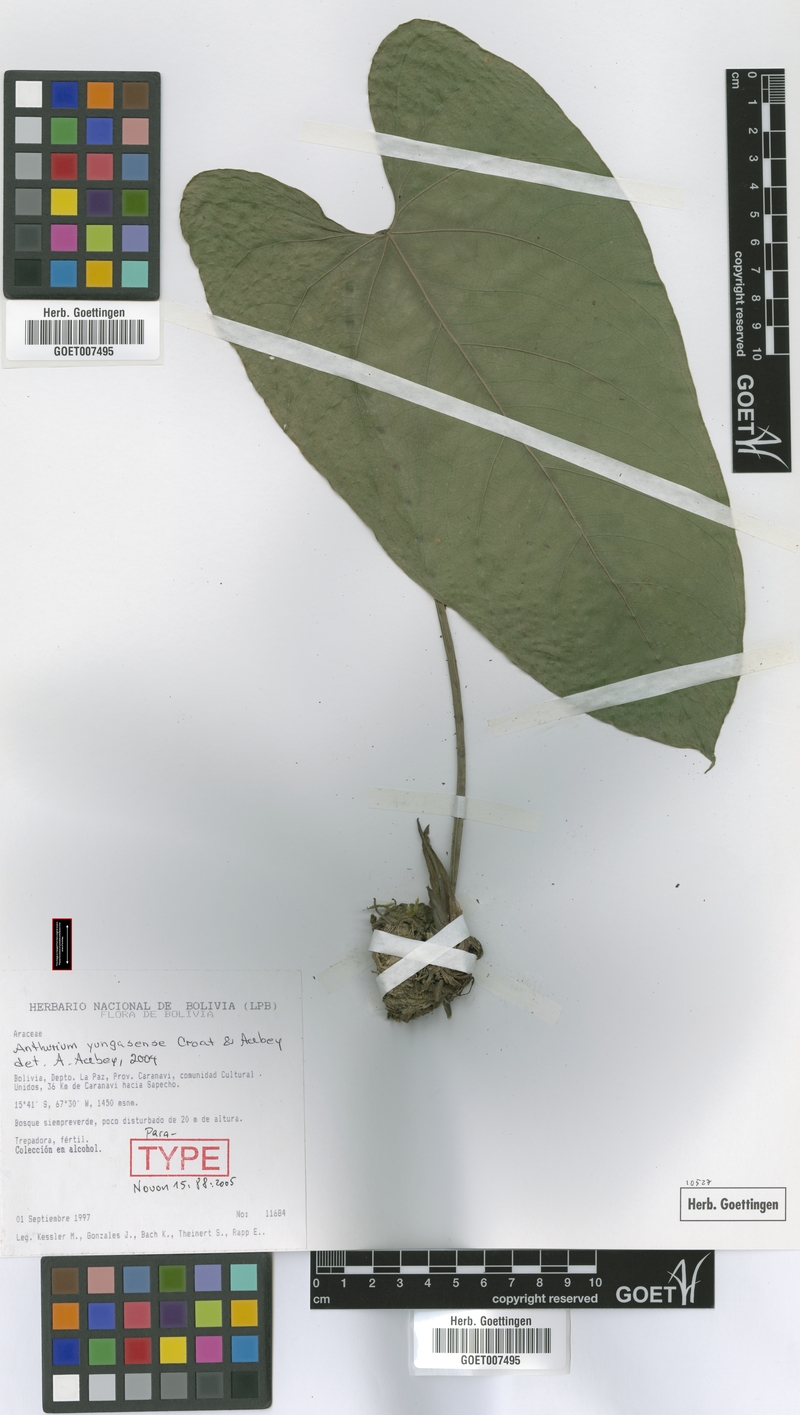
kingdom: Plantae
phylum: Tracheophyta
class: Liliopsida
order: Alismatales
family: Araceae
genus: Anthurium
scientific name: Anthurium yungasense
